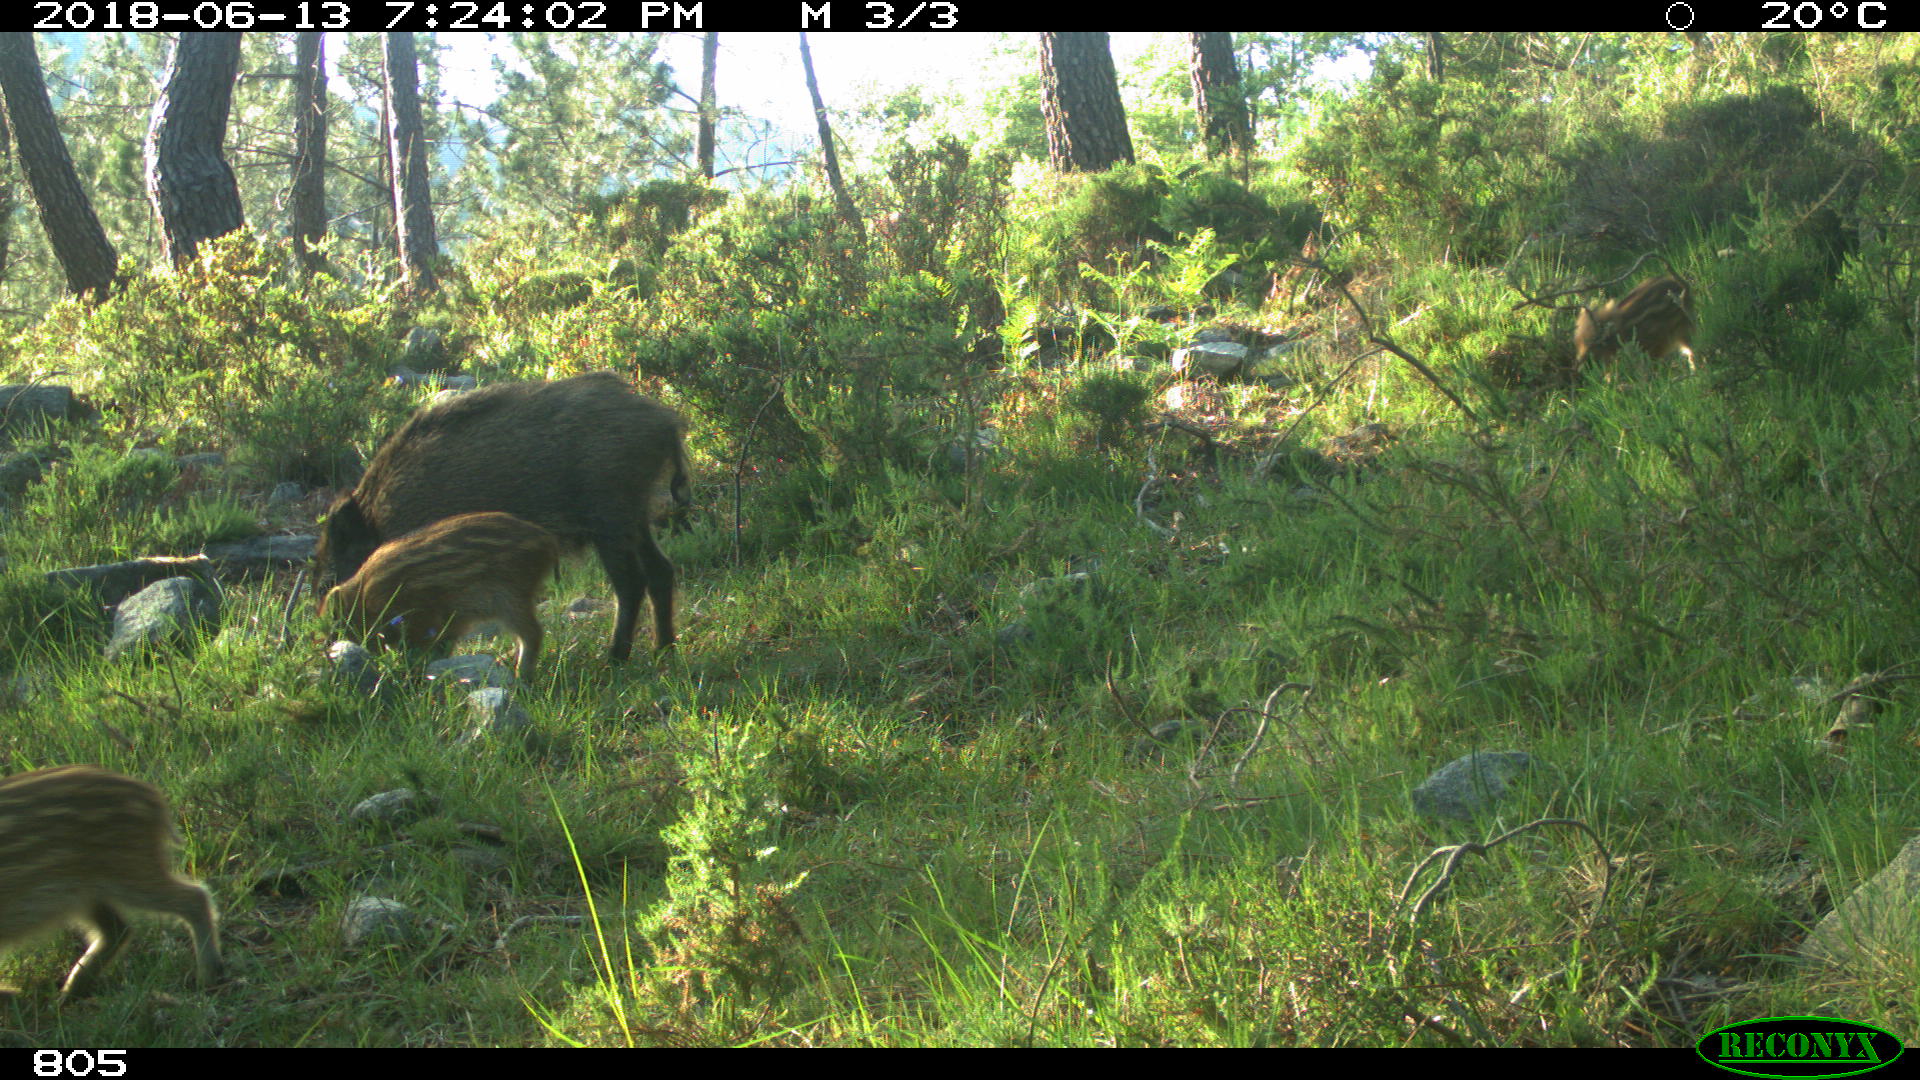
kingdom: Animalia
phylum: Chordata
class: Mammalia
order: Artiodactyla
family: Suidae
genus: Sus
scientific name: Sus scrofa
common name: Wild boar
